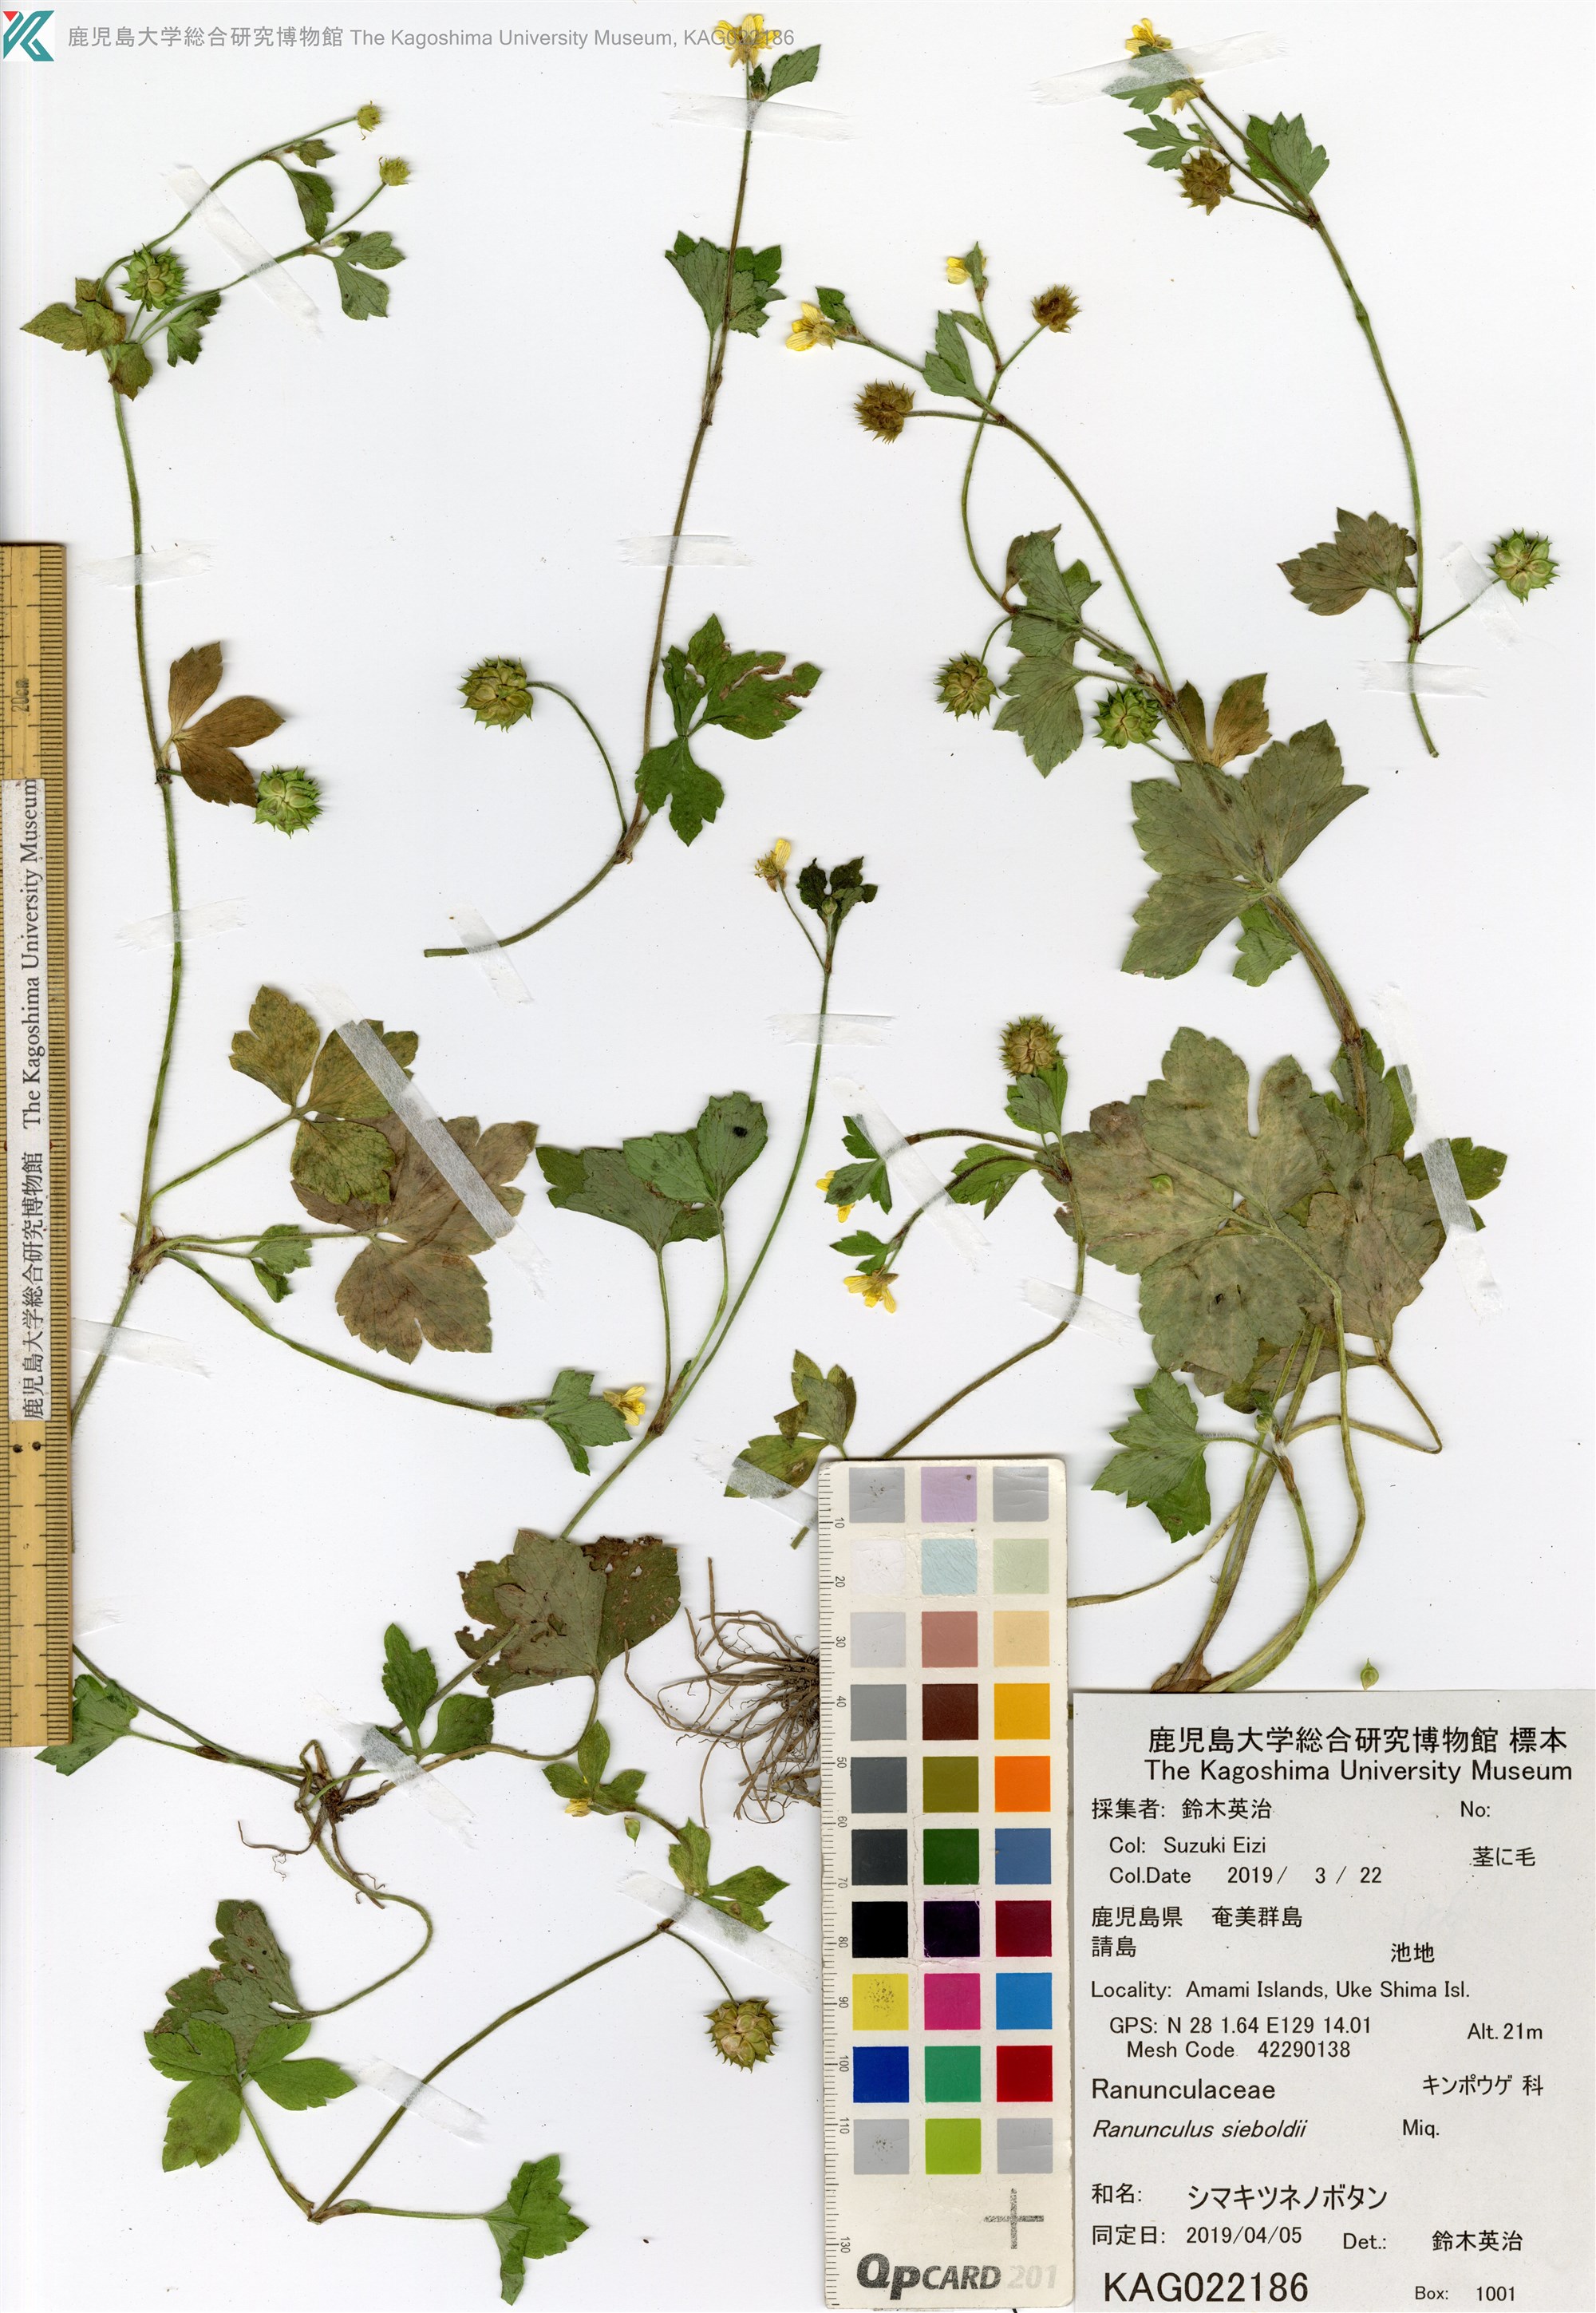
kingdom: Plantae
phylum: Tracheophyta
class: Magnoliopsida
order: Ranunculales
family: Ranunculaceae
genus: Ranunculus
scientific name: Ranunculus sieboldii
